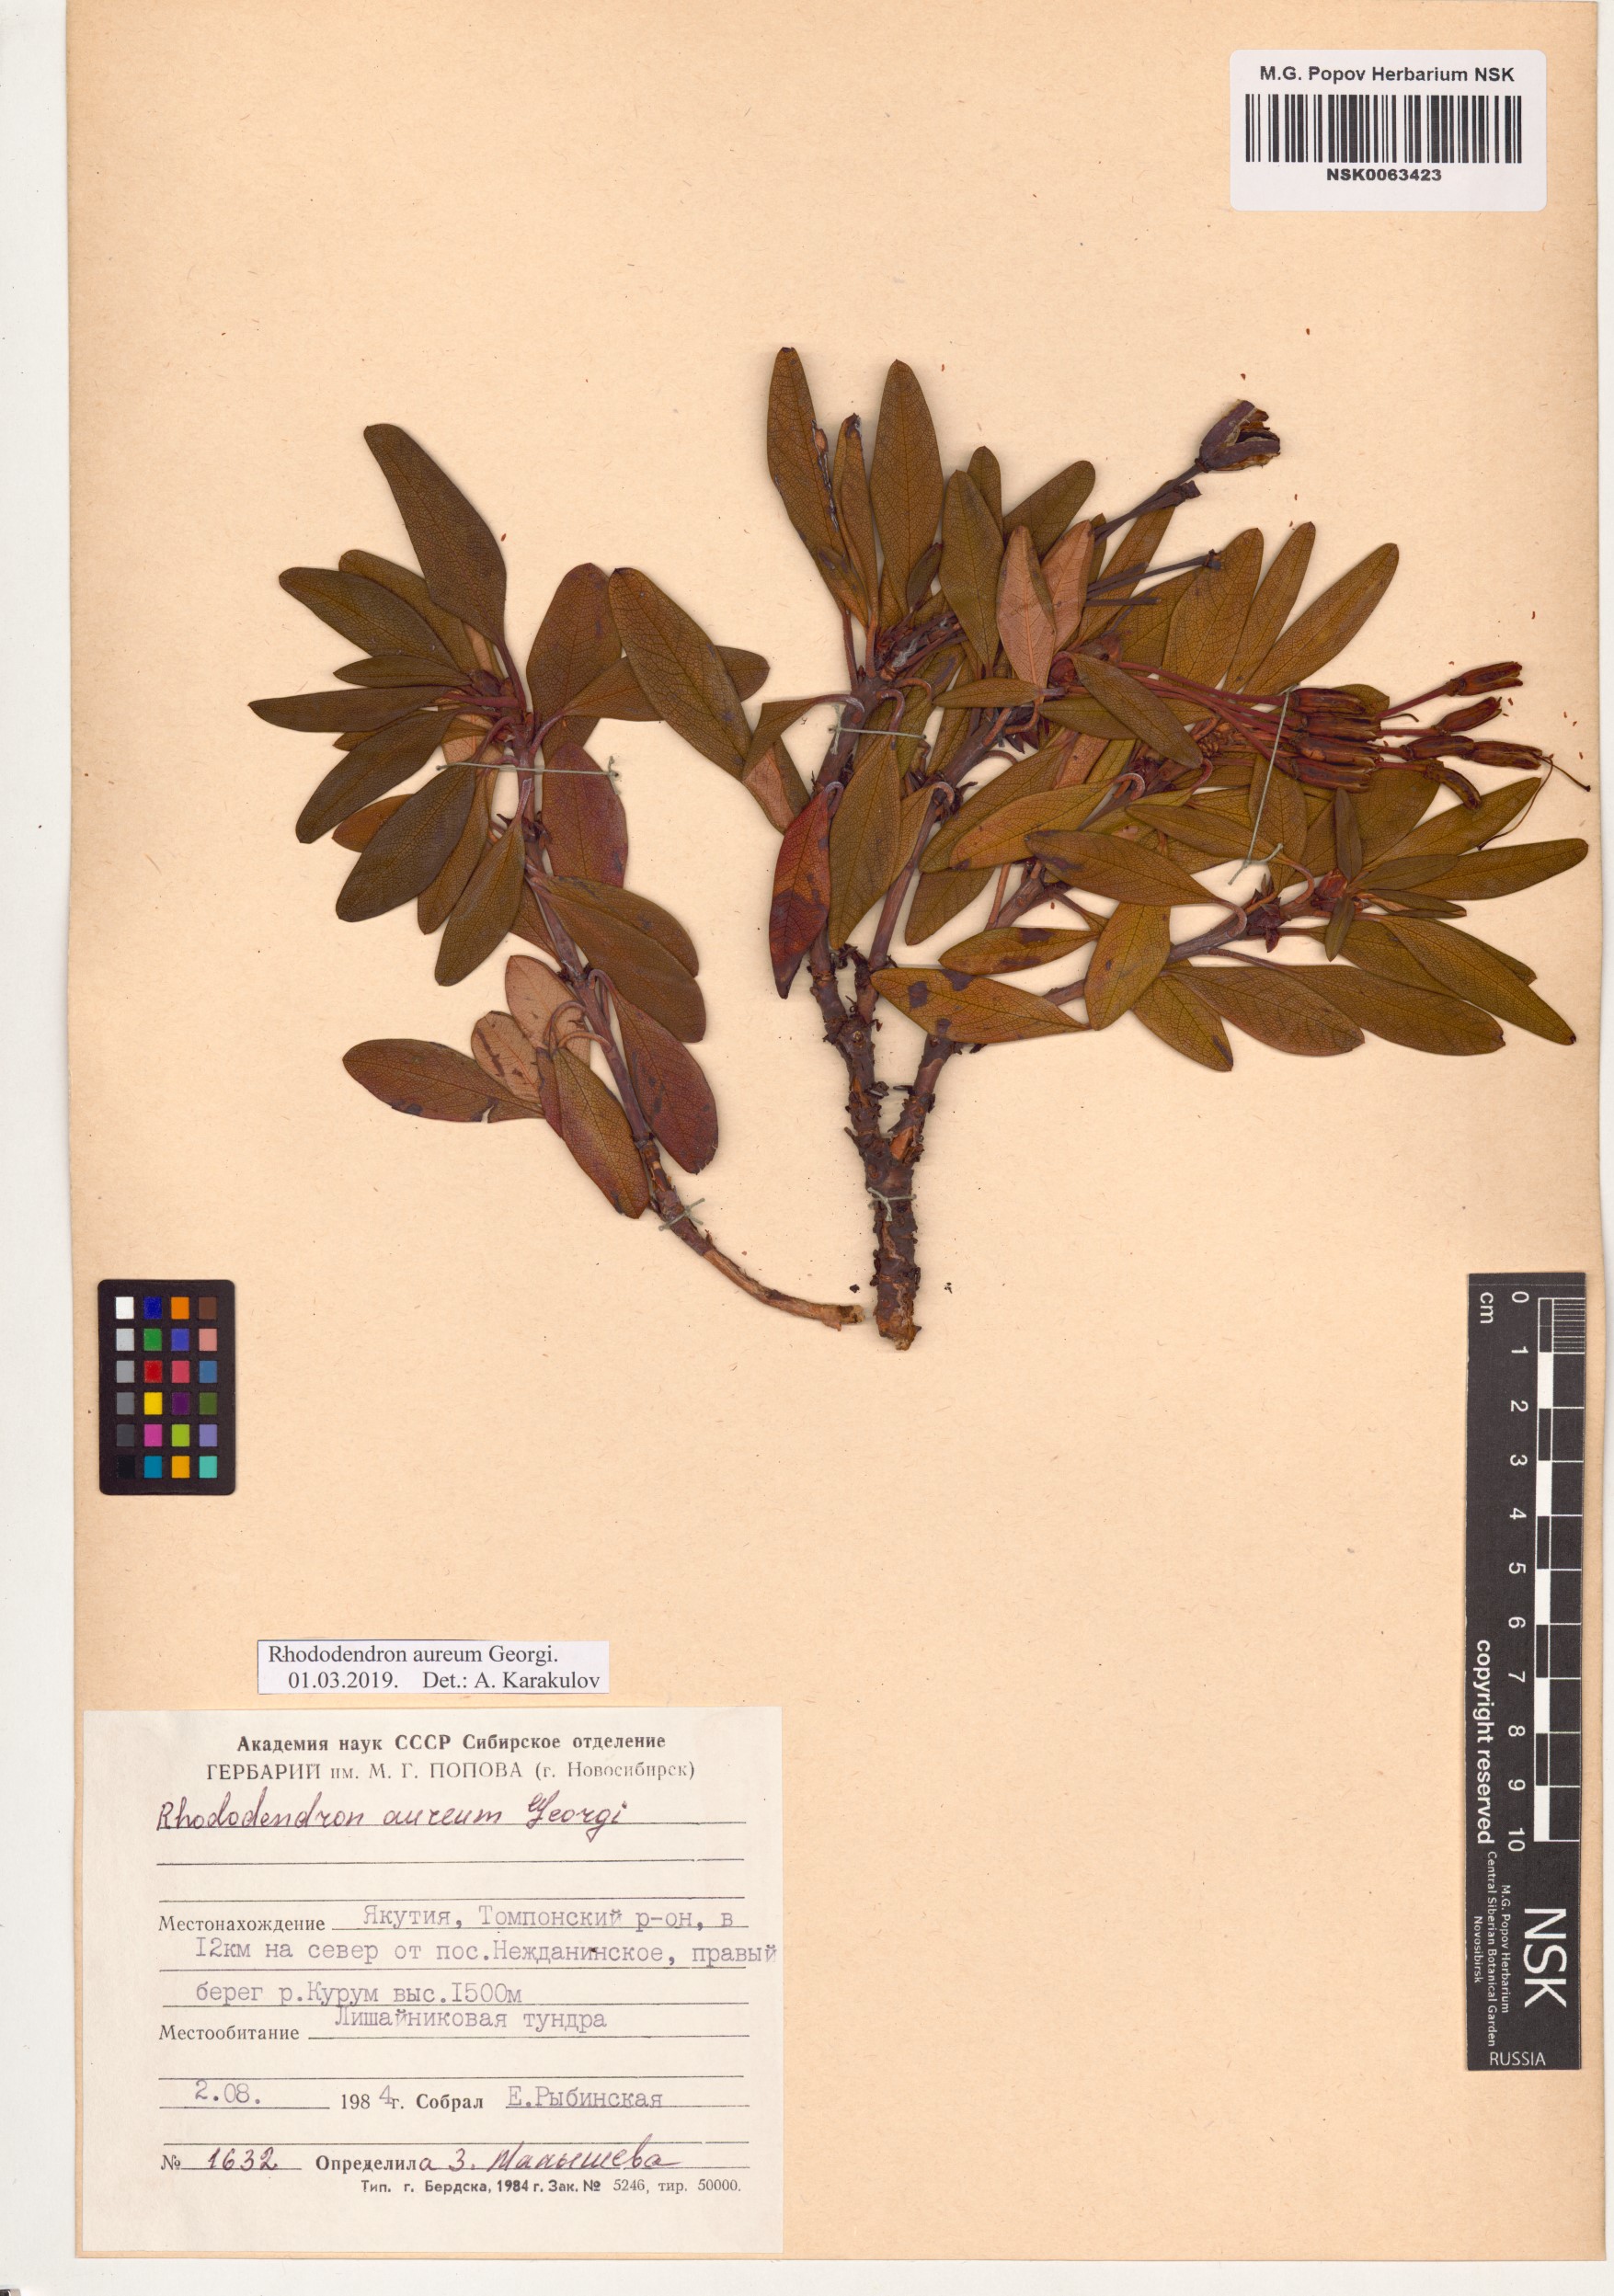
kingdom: Plantae
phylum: Tracheophyta
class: Magnoliopsida
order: Ericales
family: Ericaceae
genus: Rhododendron
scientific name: Rhododendron aureum
